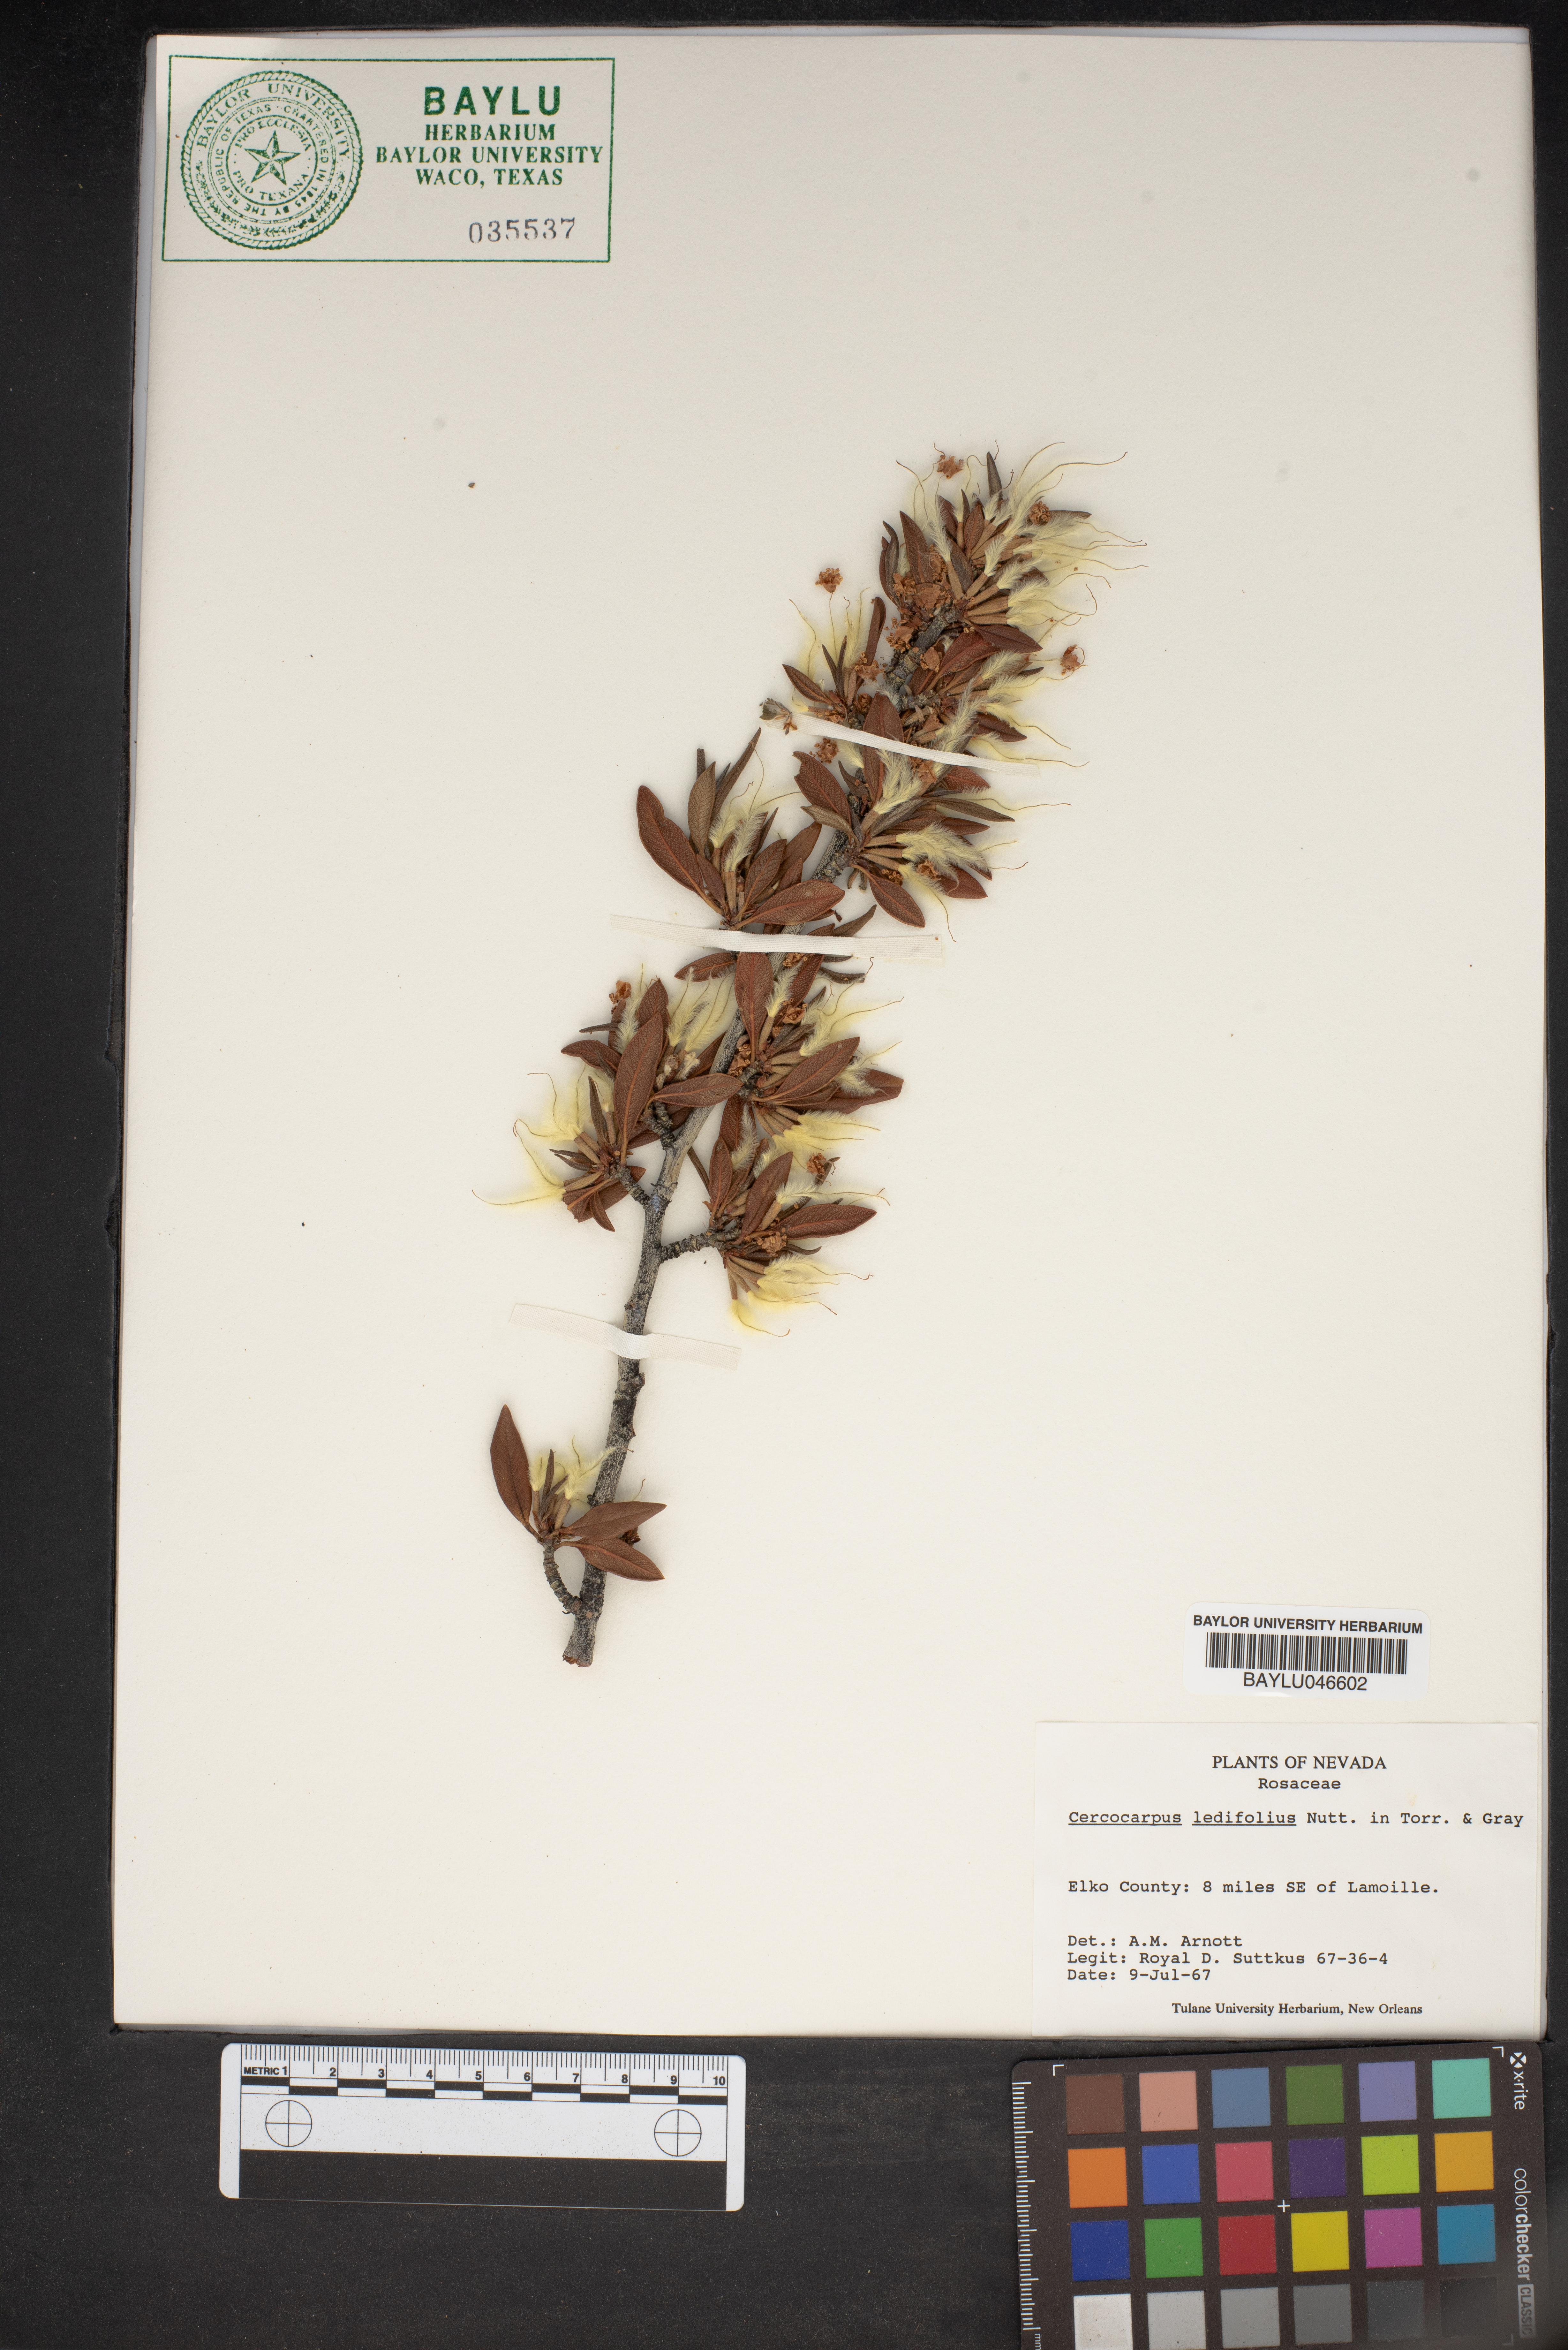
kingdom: Plantae
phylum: Tracheophyta
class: Magnoliopsida
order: Rosales
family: Rosaceae
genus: Cercocarpus
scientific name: Cercocarpus ledifolius
